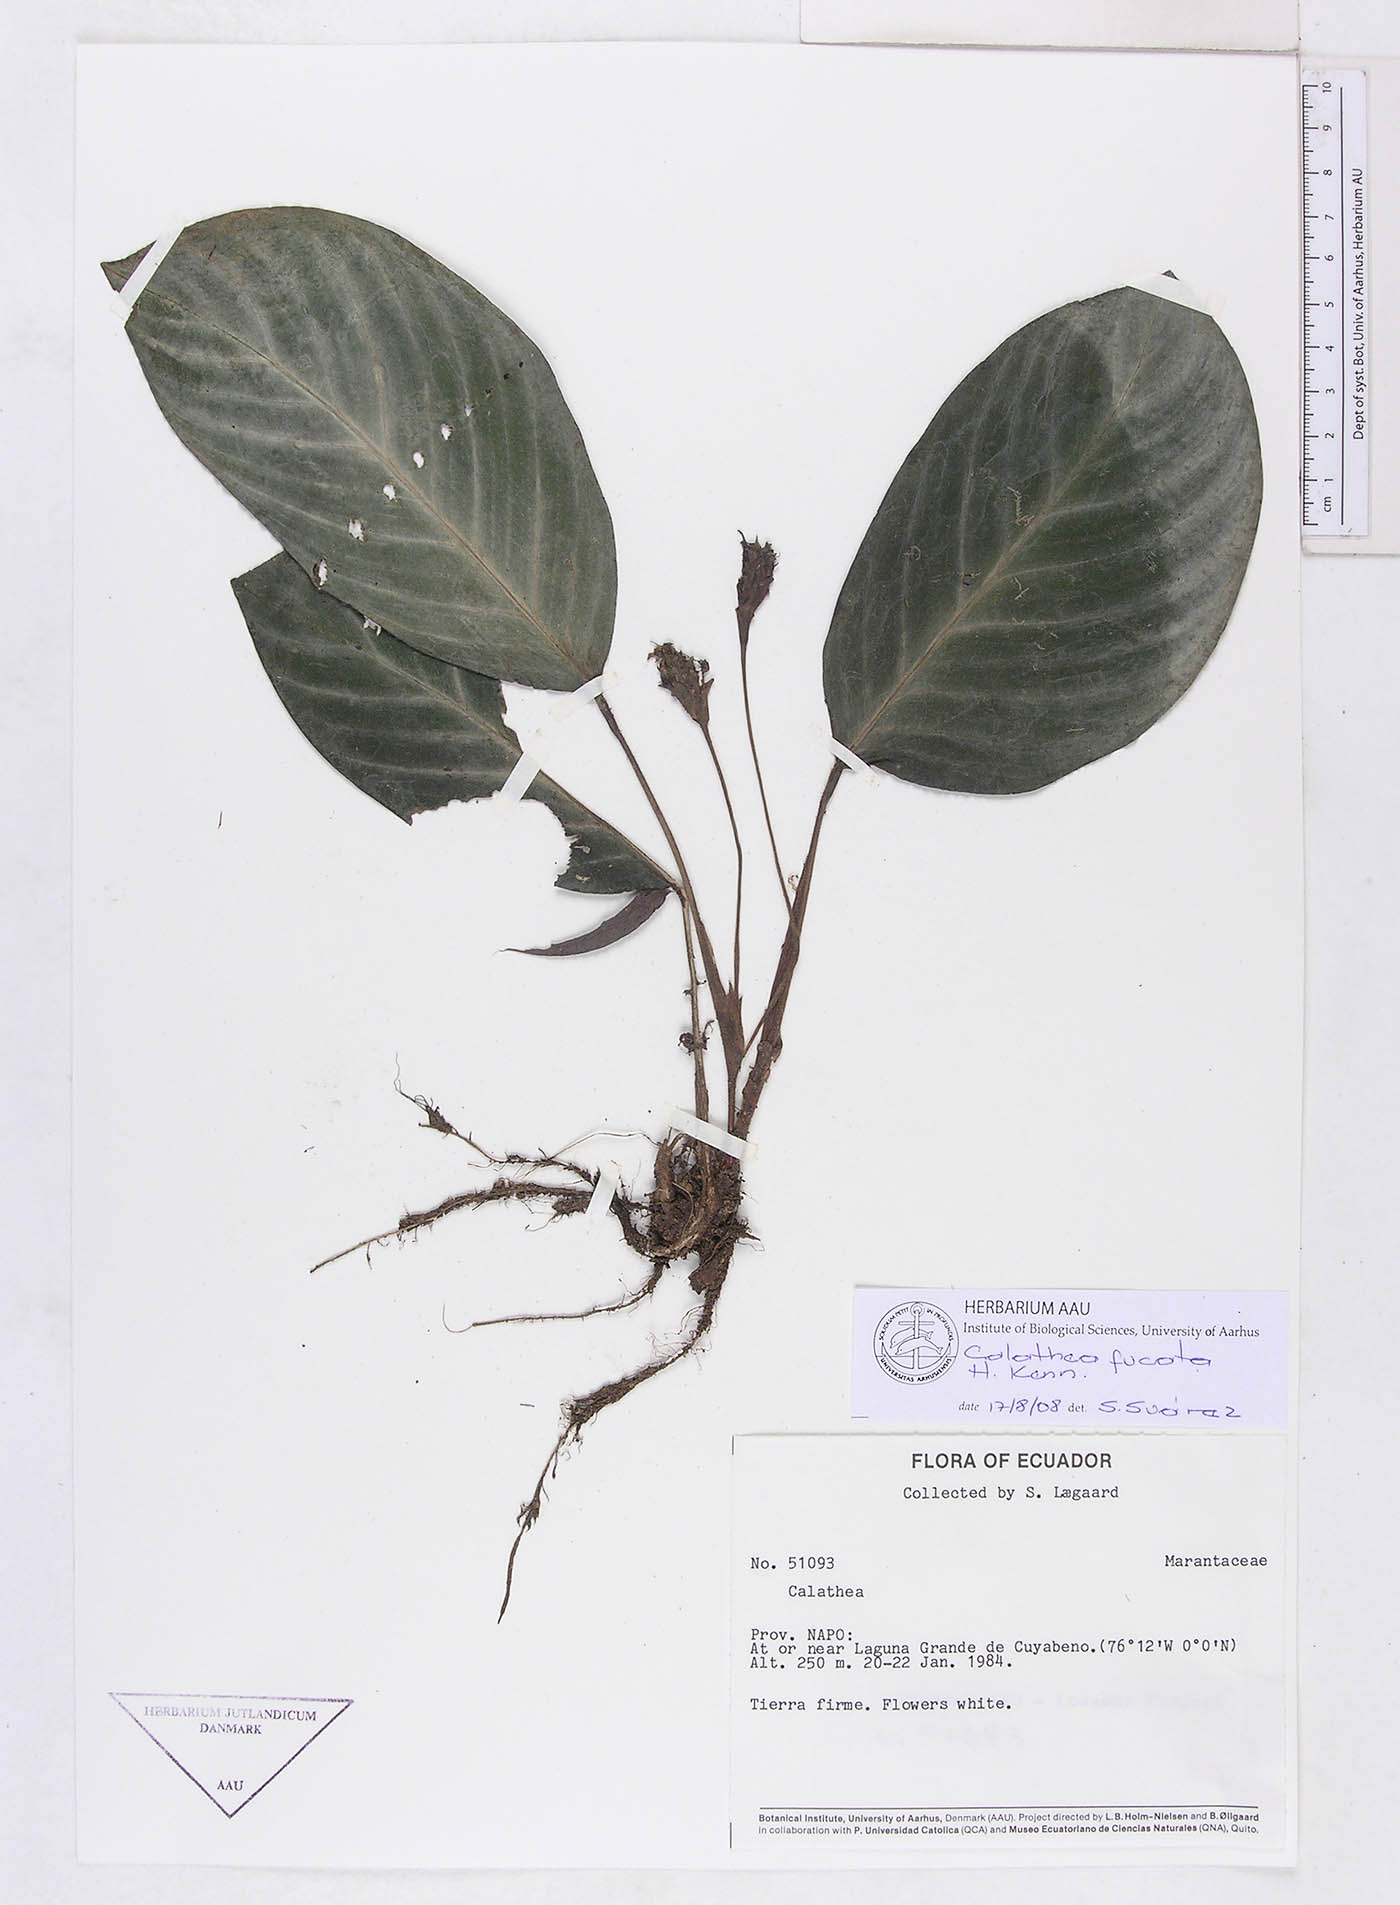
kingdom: Plantae
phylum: Tracheophyta
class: Liliopsida
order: Zingiberales
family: Marantaceae
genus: Goeppertia
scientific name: Goeppertia fucata
